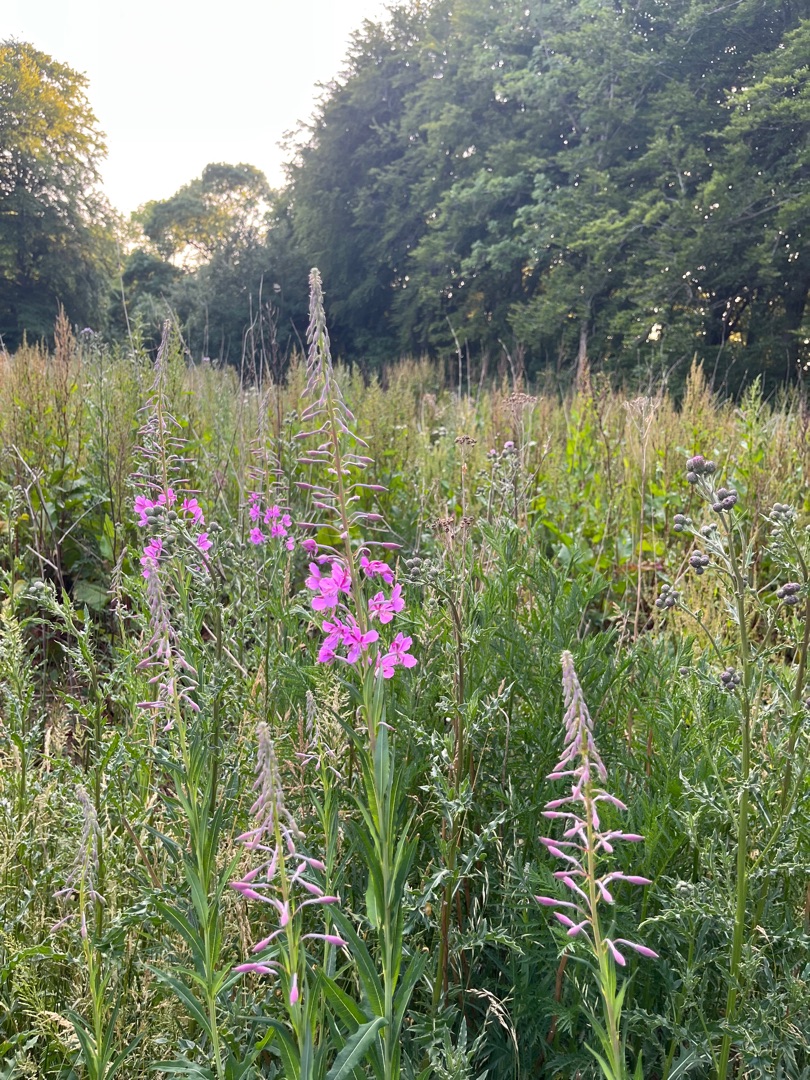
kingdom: Plantae
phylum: Tracheophyta
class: Magnoliopsida
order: Myrtales
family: Onagraceae
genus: Chamaenerion
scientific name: Chamaenerion angustifolium
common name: Gederams
